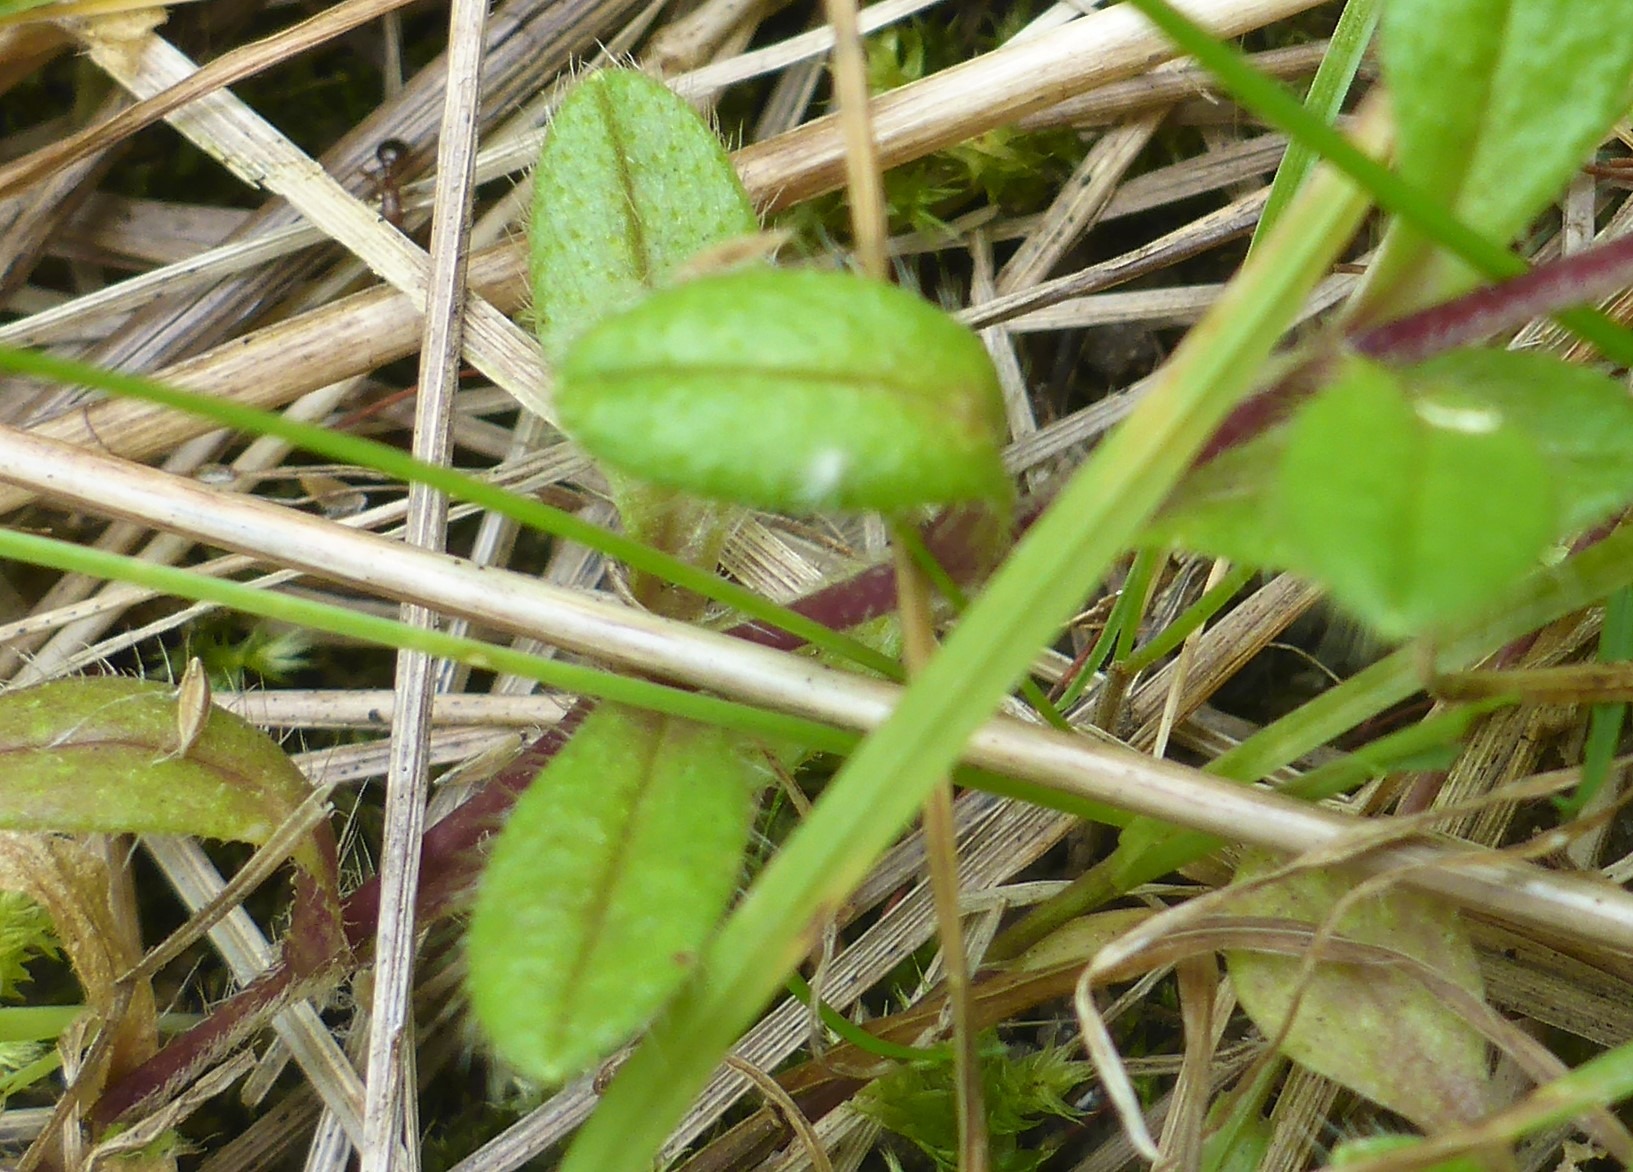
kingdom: Plantae
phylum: Tracheophyta
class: Magnoliopsida
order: Caryophyllales
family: Caryophyllaceae
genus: Cerastium
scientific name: Cerastium fontanum
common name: Almindelig hønsetarm
